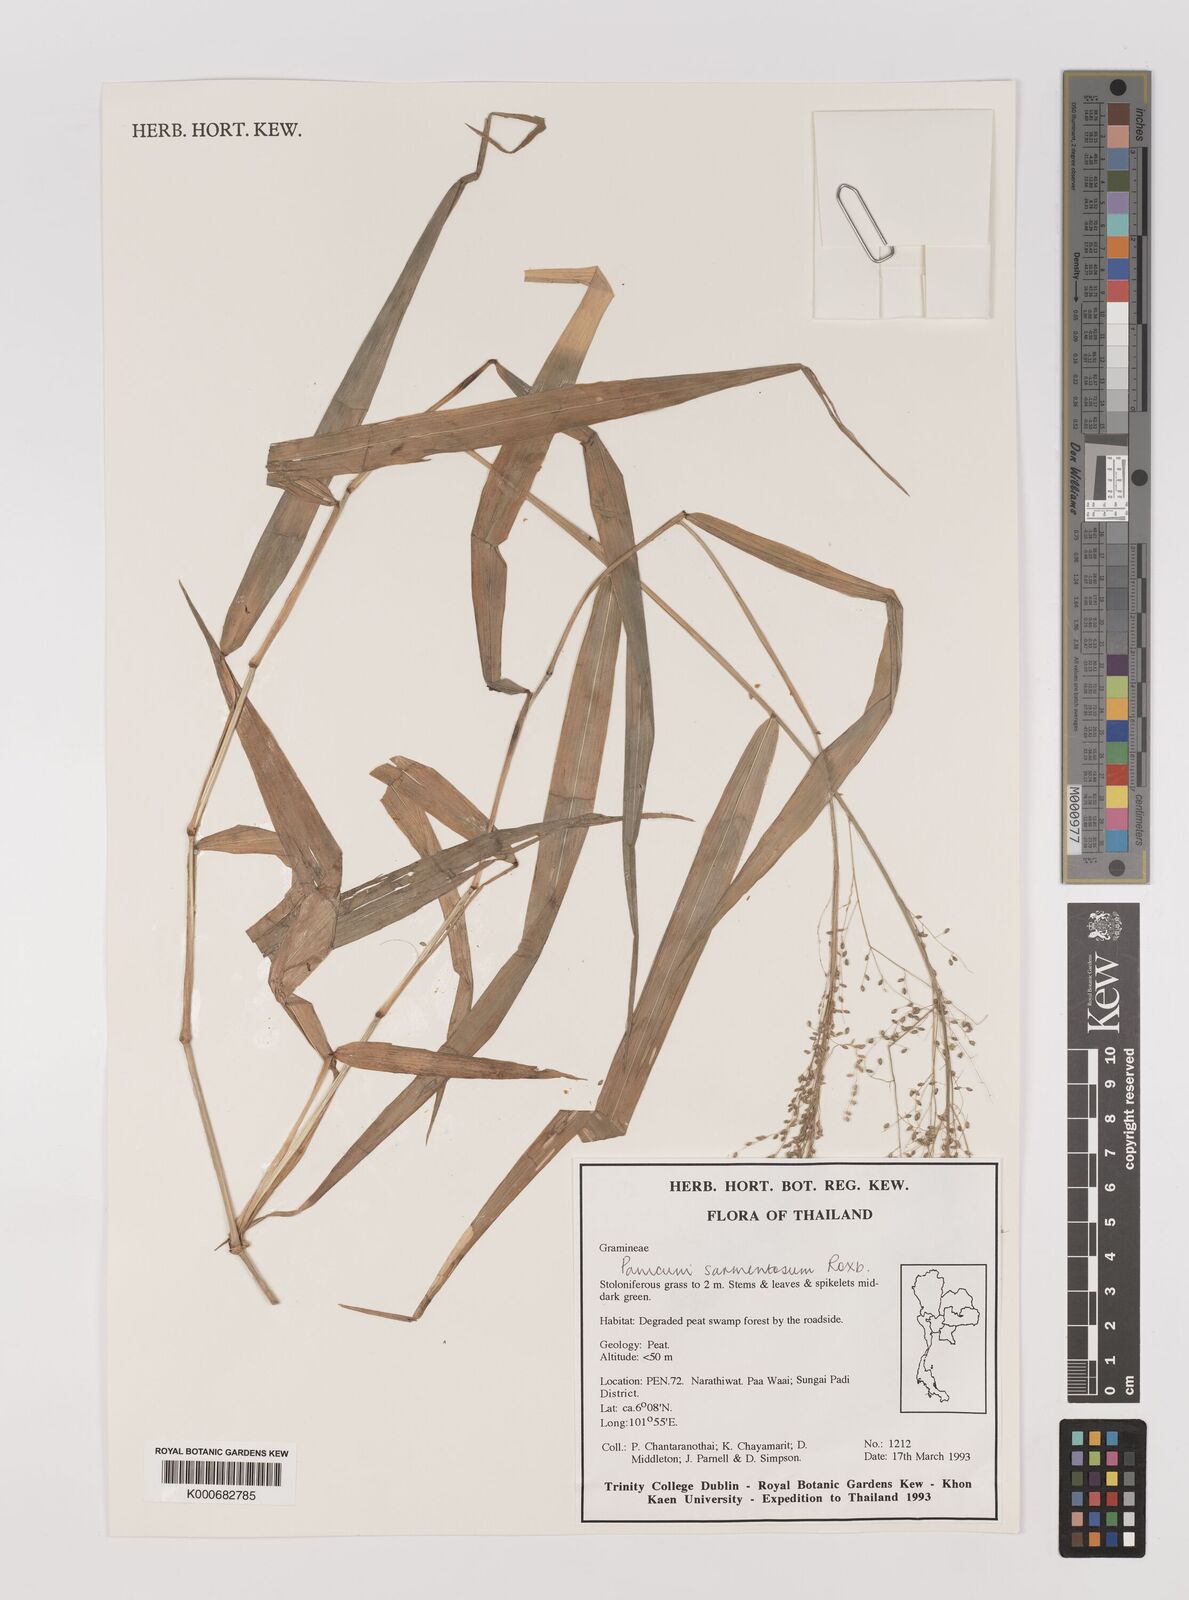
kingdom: Plantae
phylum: Tracheophyta
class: Liliopsida
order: Poales
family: Poaceae
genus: Panicum
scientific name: Panicum sarmentosum
